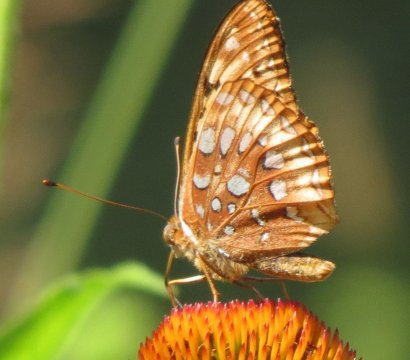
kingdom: Animalia
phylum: Arthropoda
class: Insecta
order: Lepidoptera
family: Nymphalidae
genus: Speyeria
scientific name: Speyeria cybele
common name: Great Spangled Fritillary
